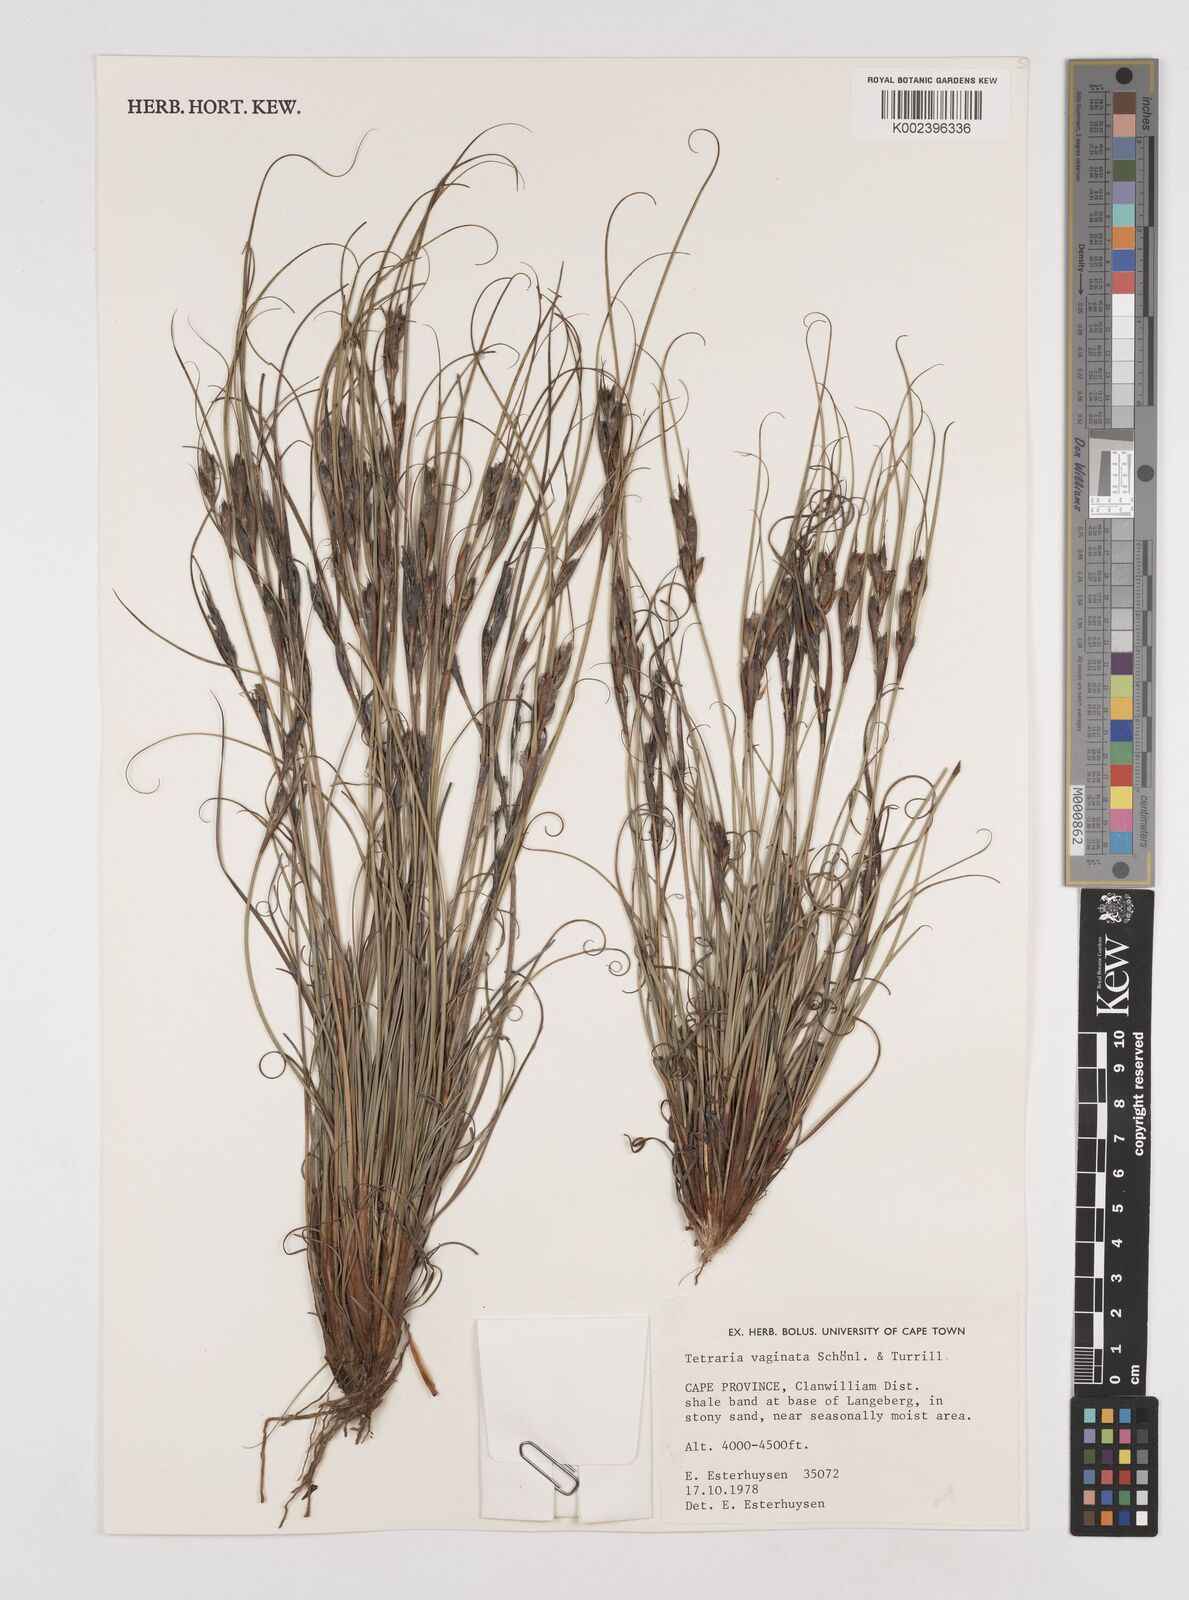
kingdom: Plantae
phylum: Tracheophyta
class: Liliopsida
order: Poales
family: Cyperaceae
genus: Tetraria
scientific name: Tetraria vaginata
